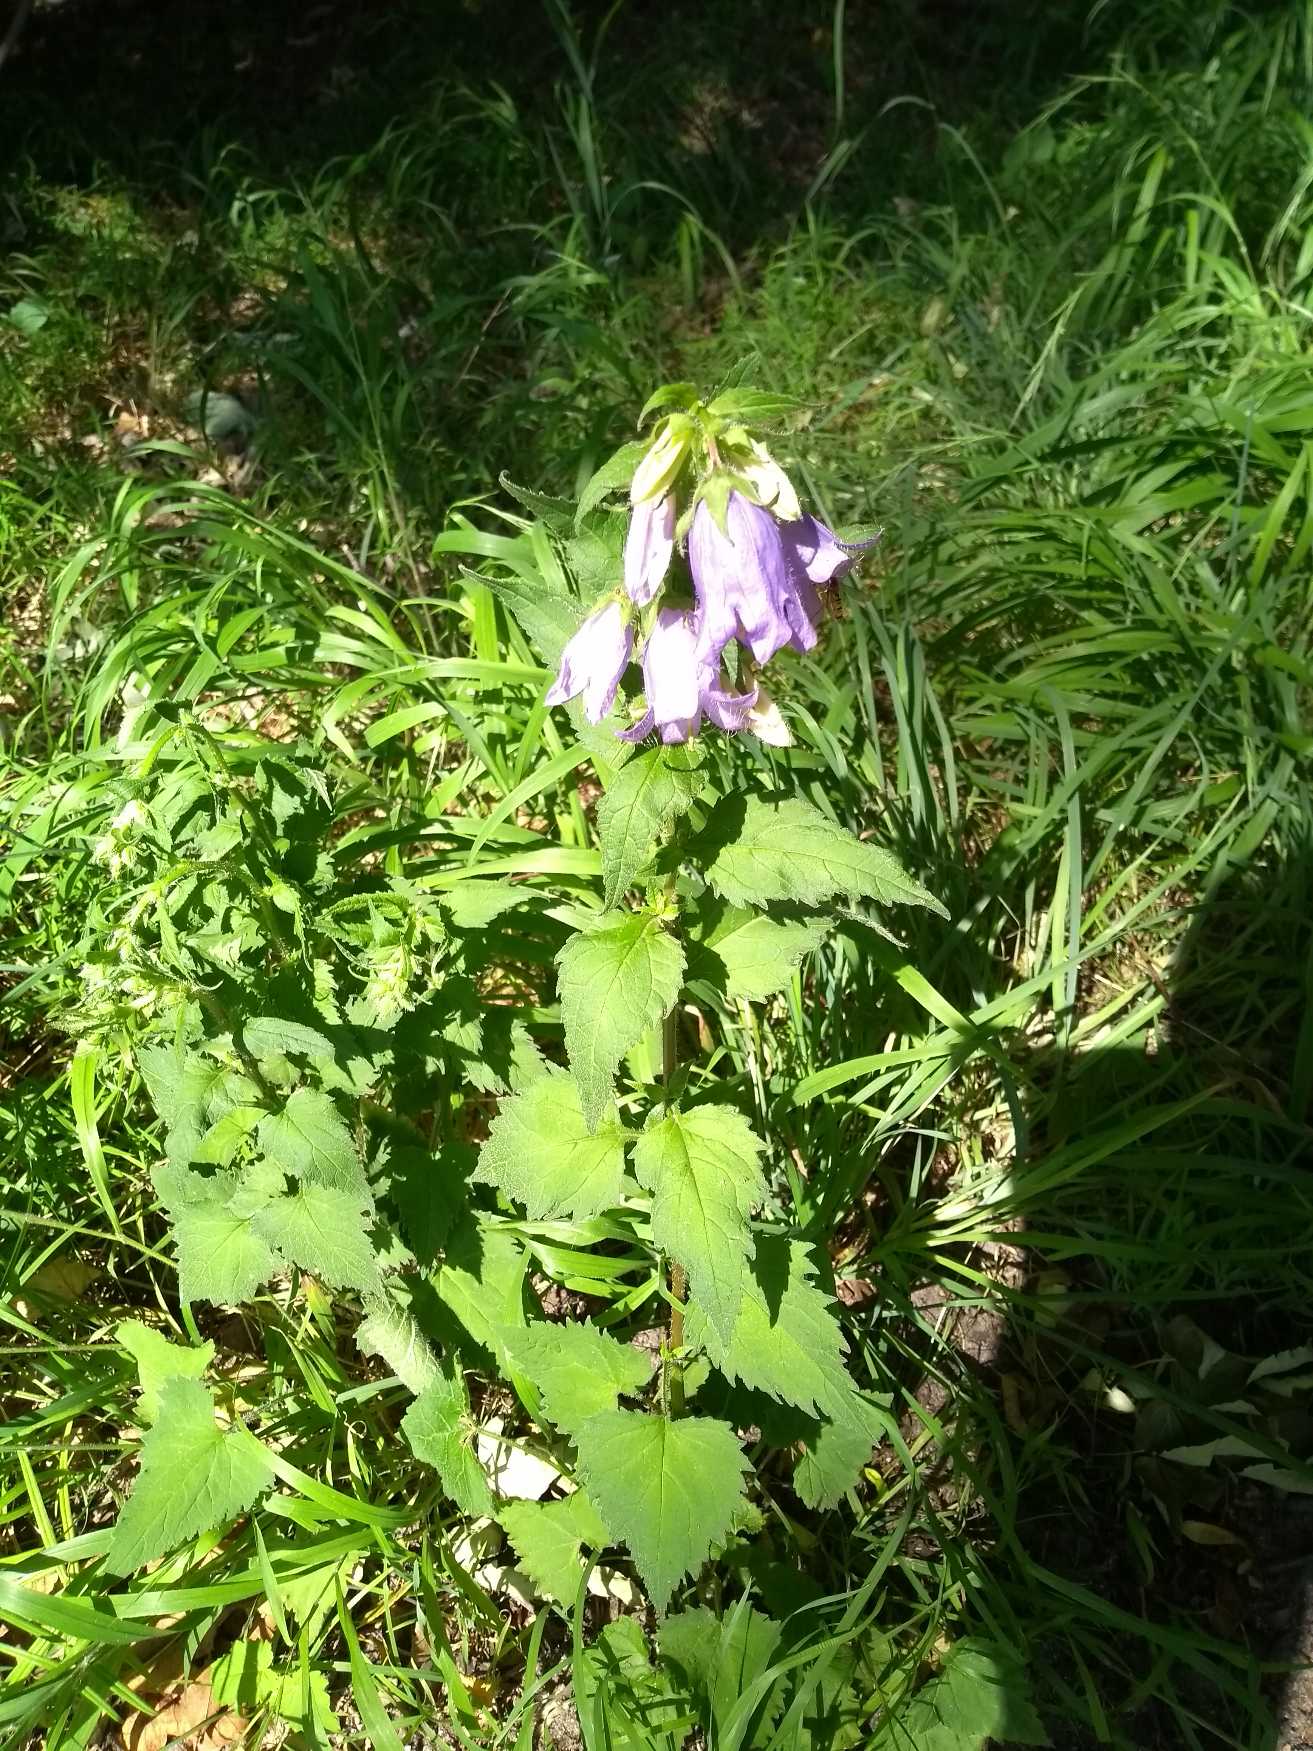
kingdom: Plantae
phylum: Tracheophyta
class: Magnoliopsida
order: Asterales
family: Campanulaceae
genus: Campanula
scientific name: Campanula trachelium
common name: Nælde-klokke
